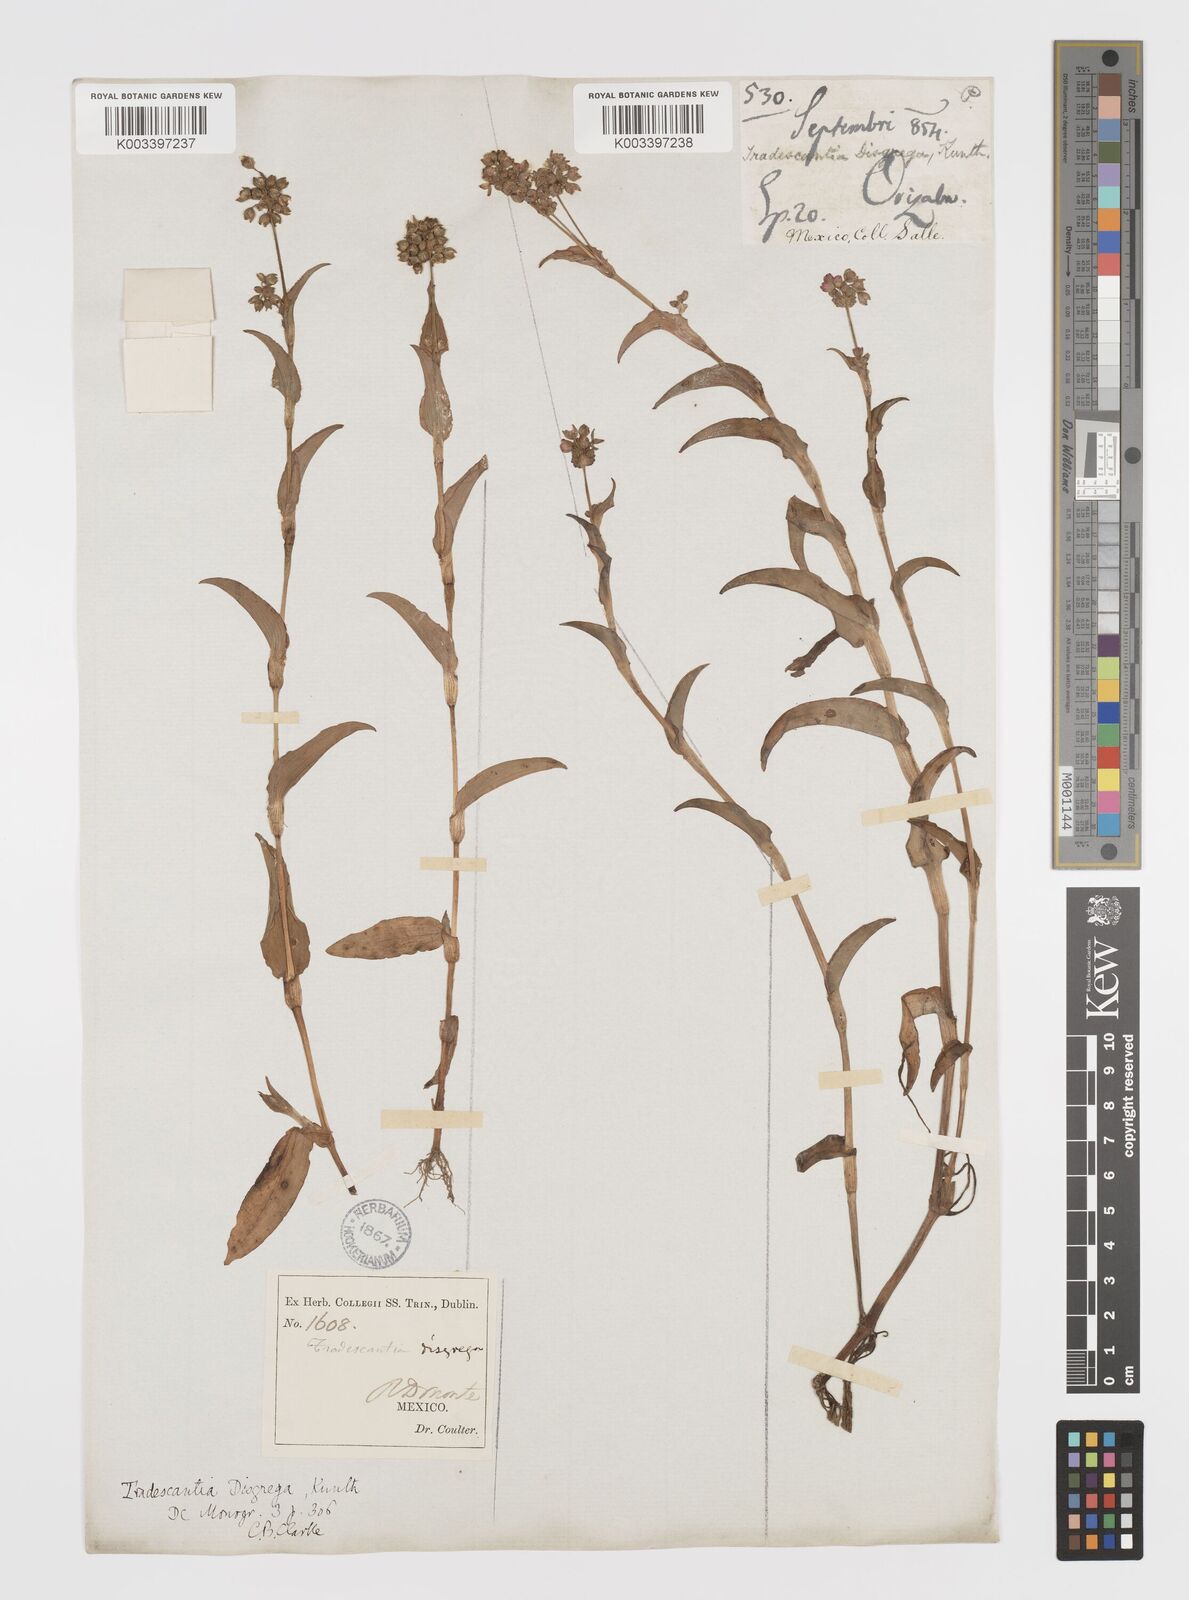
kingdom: Plantae
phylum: Tracheophyta
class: Liliopsida
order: Commelinales
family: Commelinaceae
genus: Callisia
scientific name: Callisia disgrega
